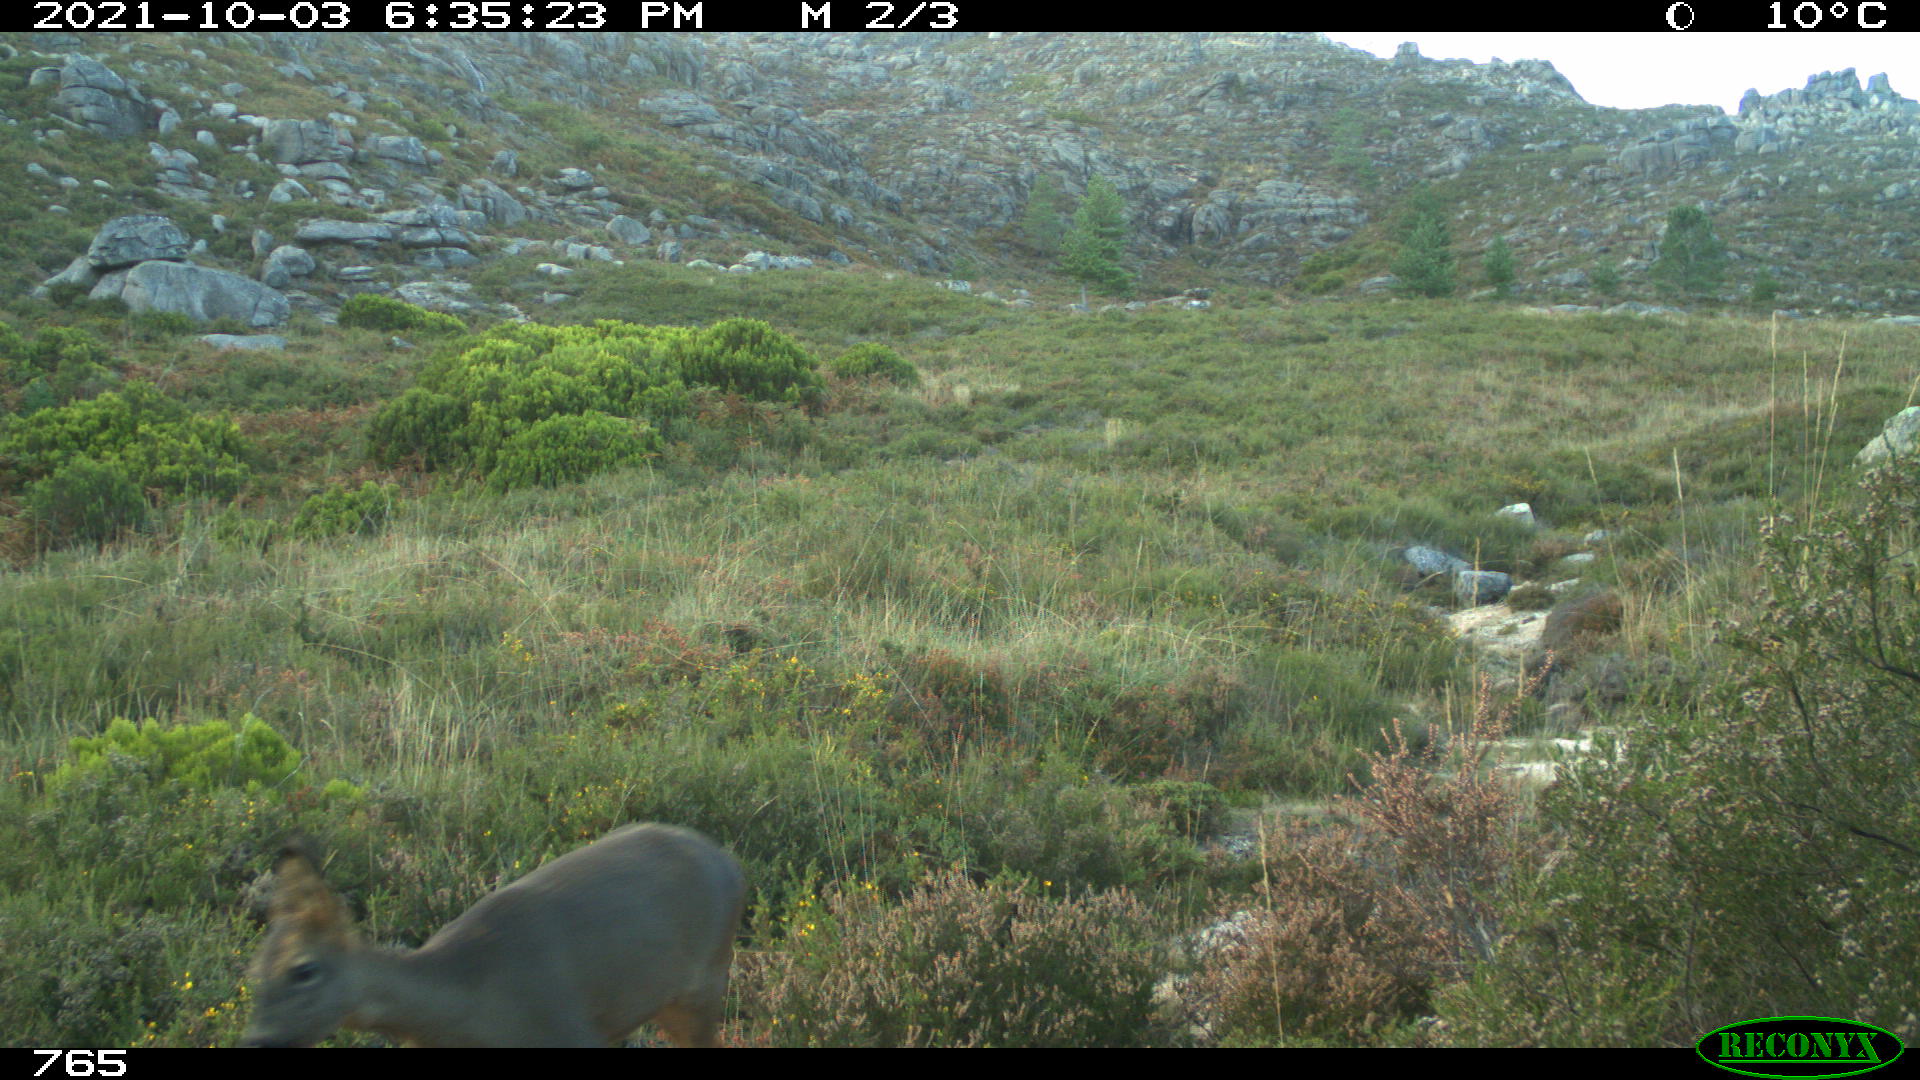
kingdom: Animalia
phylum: Chordata
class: Mammalia
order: Artiodactyla
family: Cervidae
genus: Capreolus
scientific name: Capreolus capreolus
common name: Western roe deer
